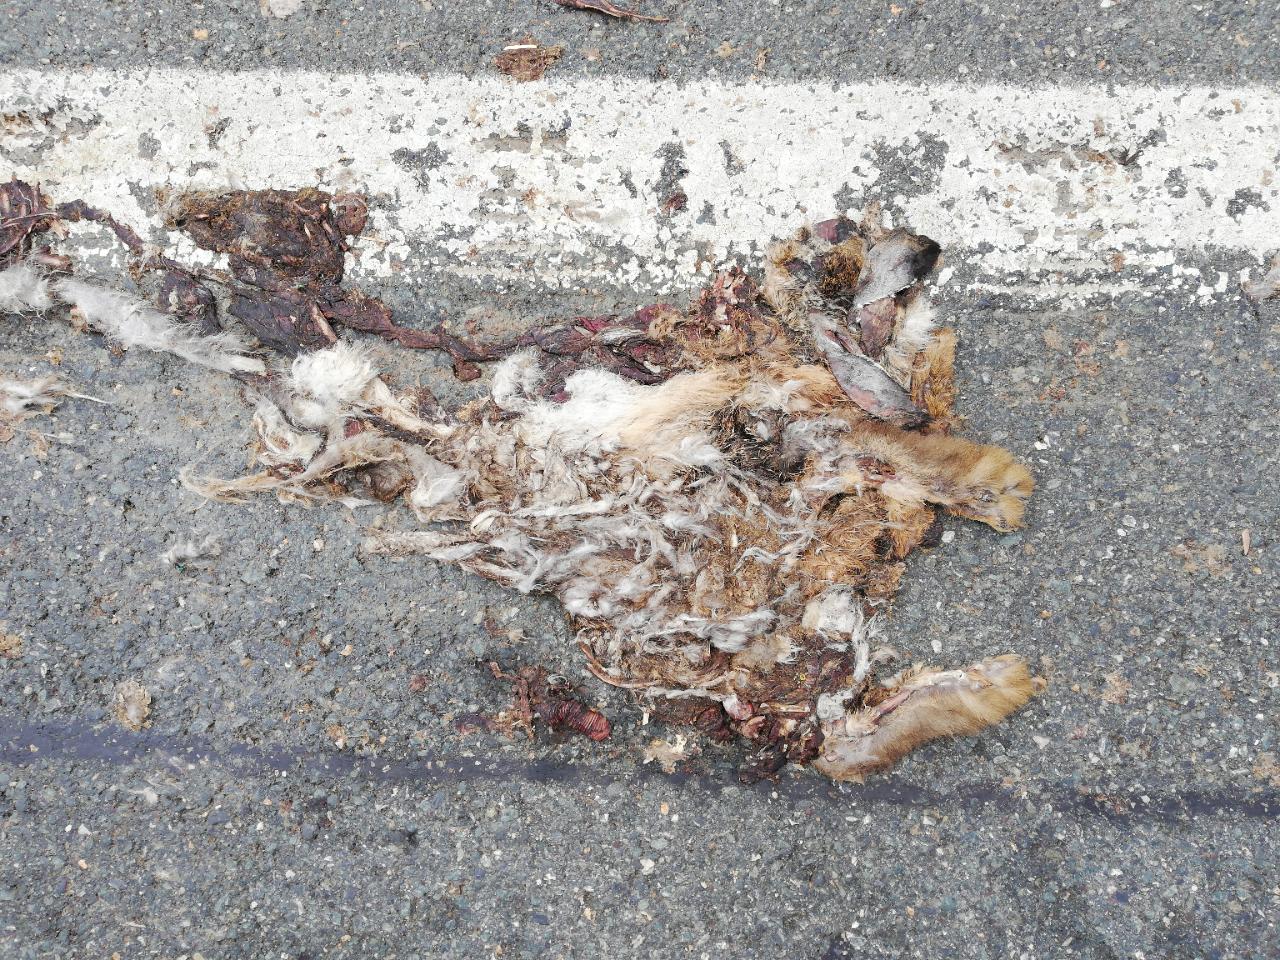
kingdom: Animalia
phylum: Chordata
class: Mammalia
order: Lagomorpha
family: Leporidae
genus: Lepus
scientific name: Lepus europaeus
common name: European hare
